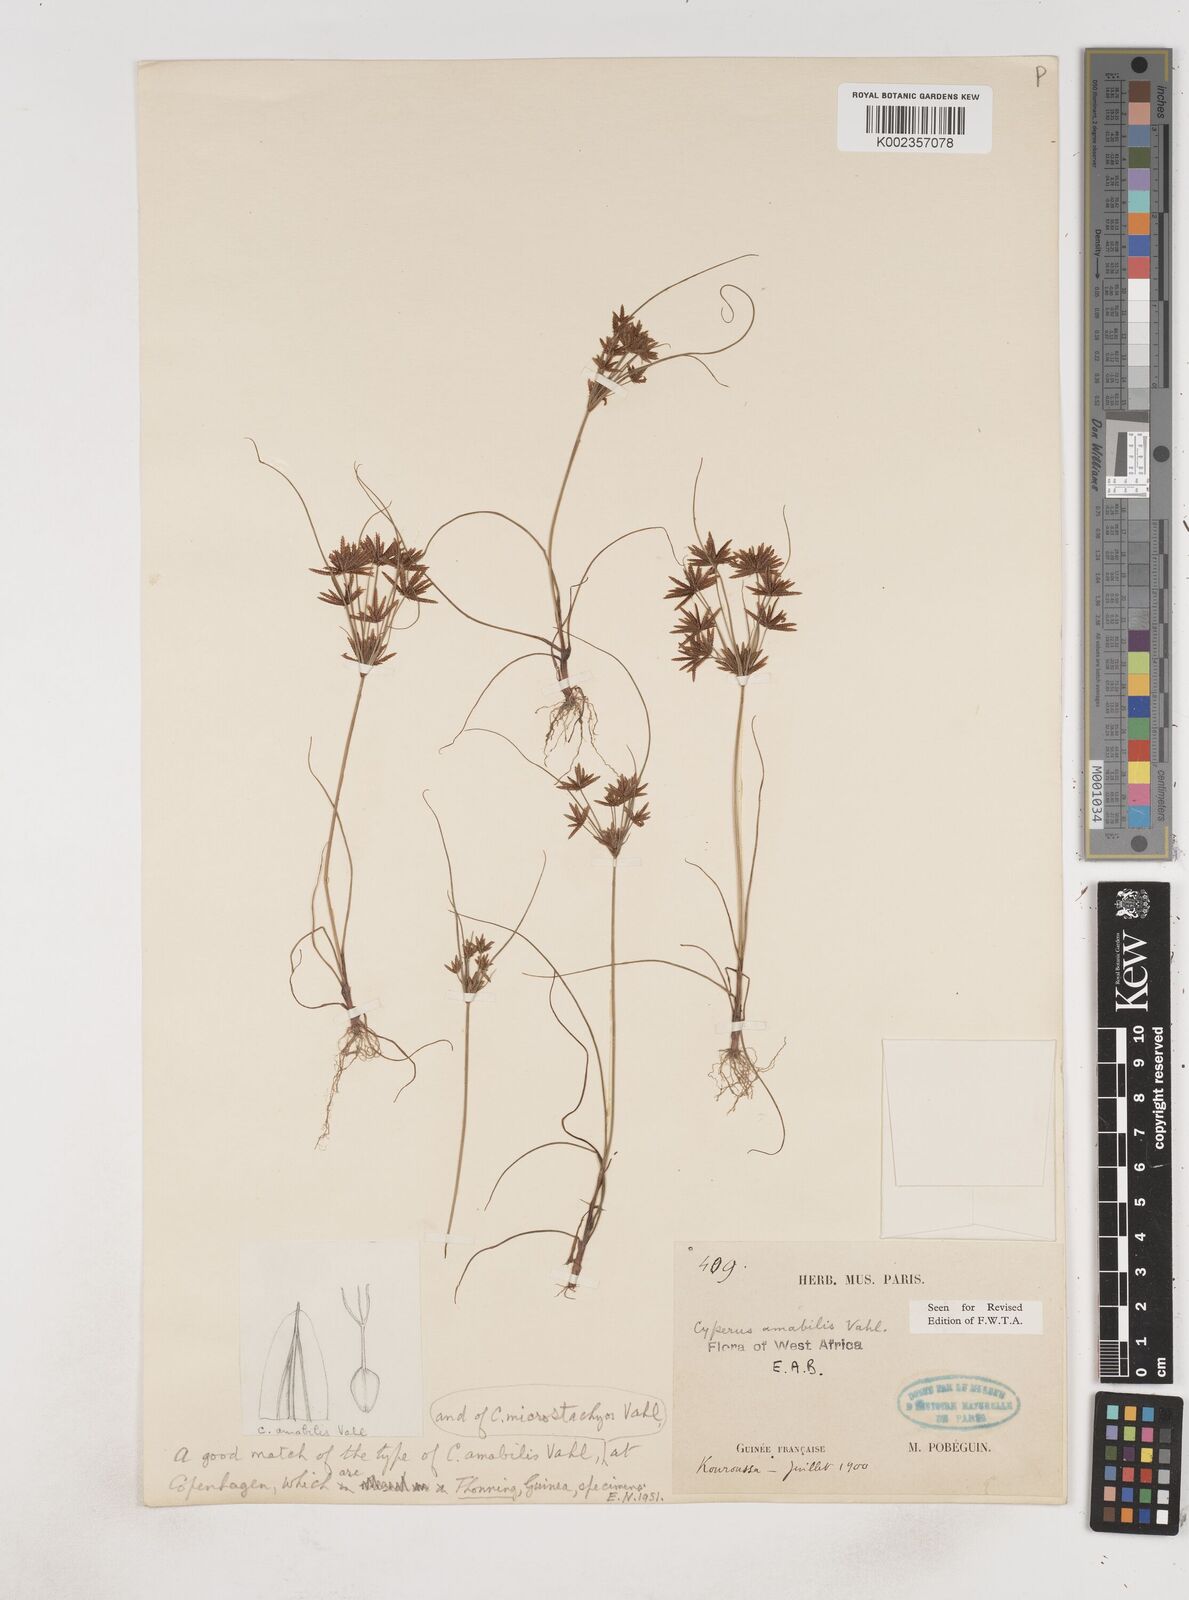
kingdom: Plantae
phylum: Tracheophyta
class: Liliopsida
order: Poales
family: Cyperaceae
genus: Cyperus
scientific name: Cyperus amabilis
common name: Foothill flat sedge
